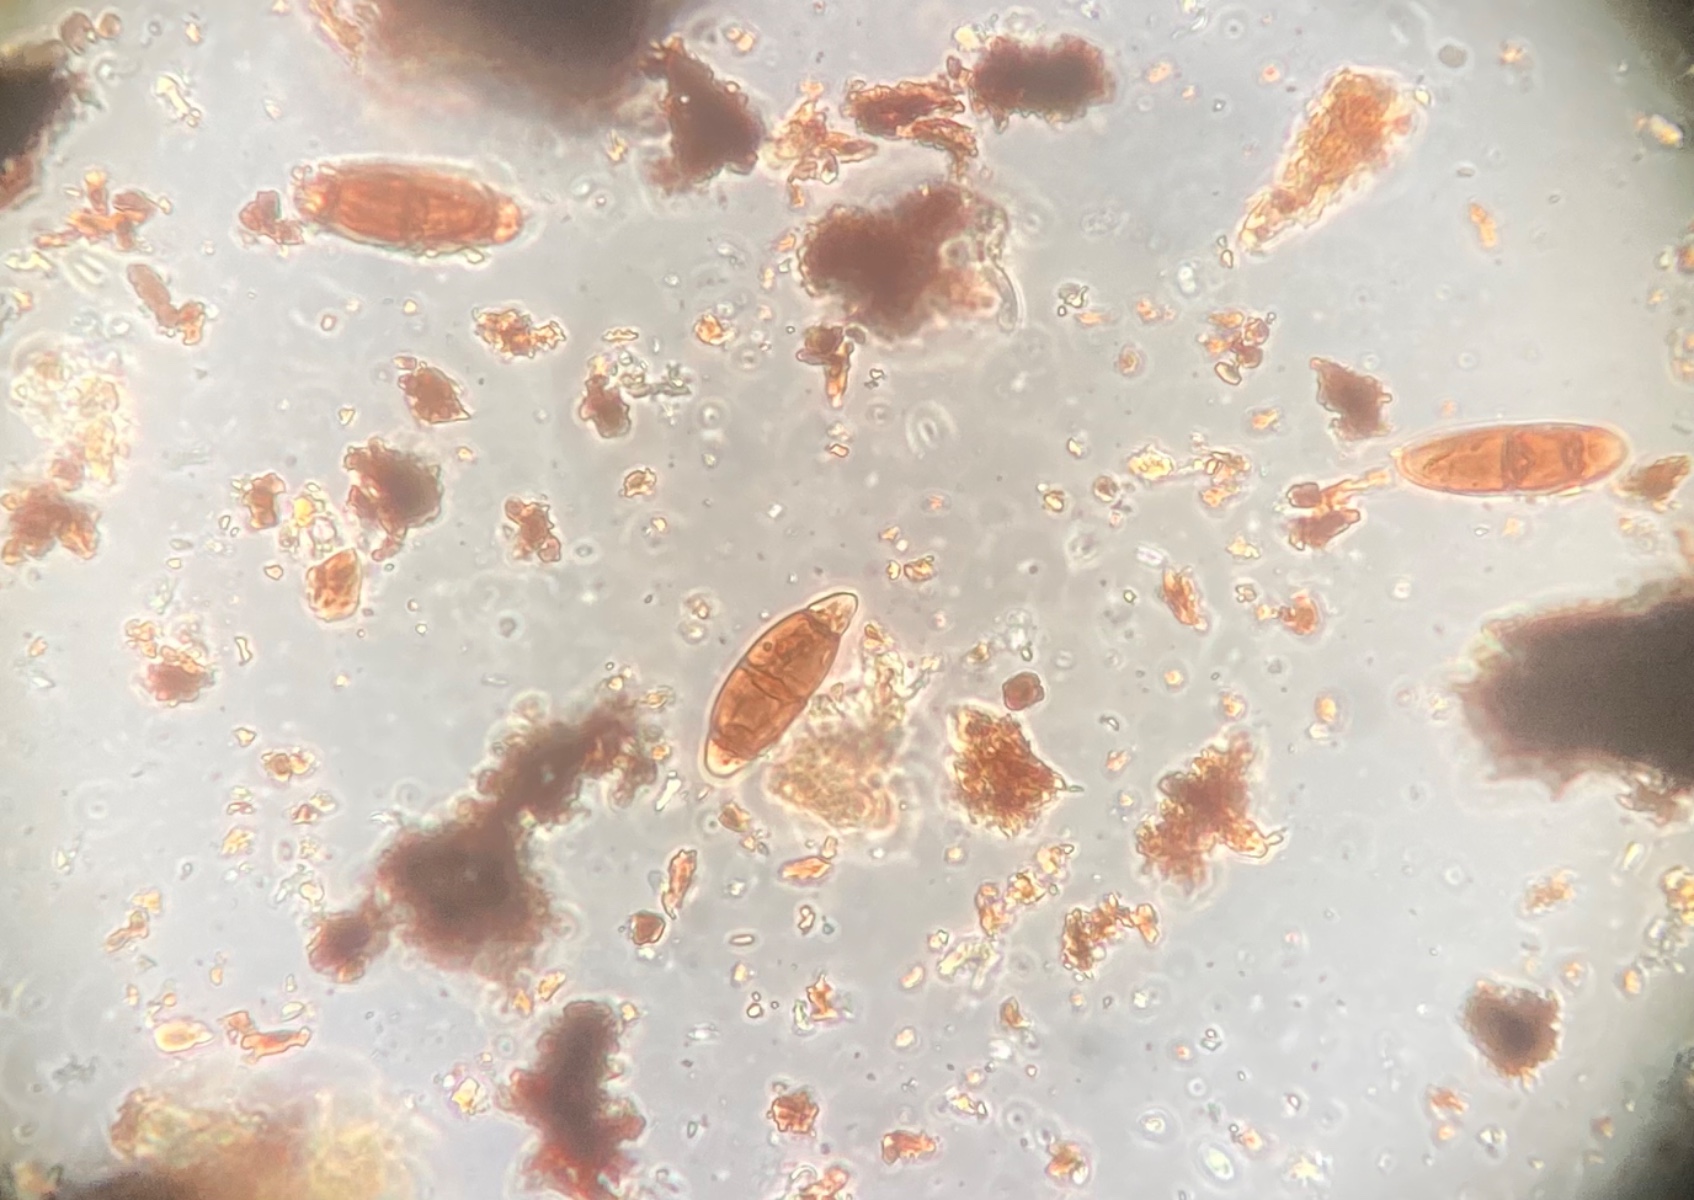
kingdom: Fungi
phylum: Ascomycota
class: Dothideomycetes
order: Hysteriales
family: Hysteriaceae
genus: Hysterium
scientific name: Hysterium pulicare
